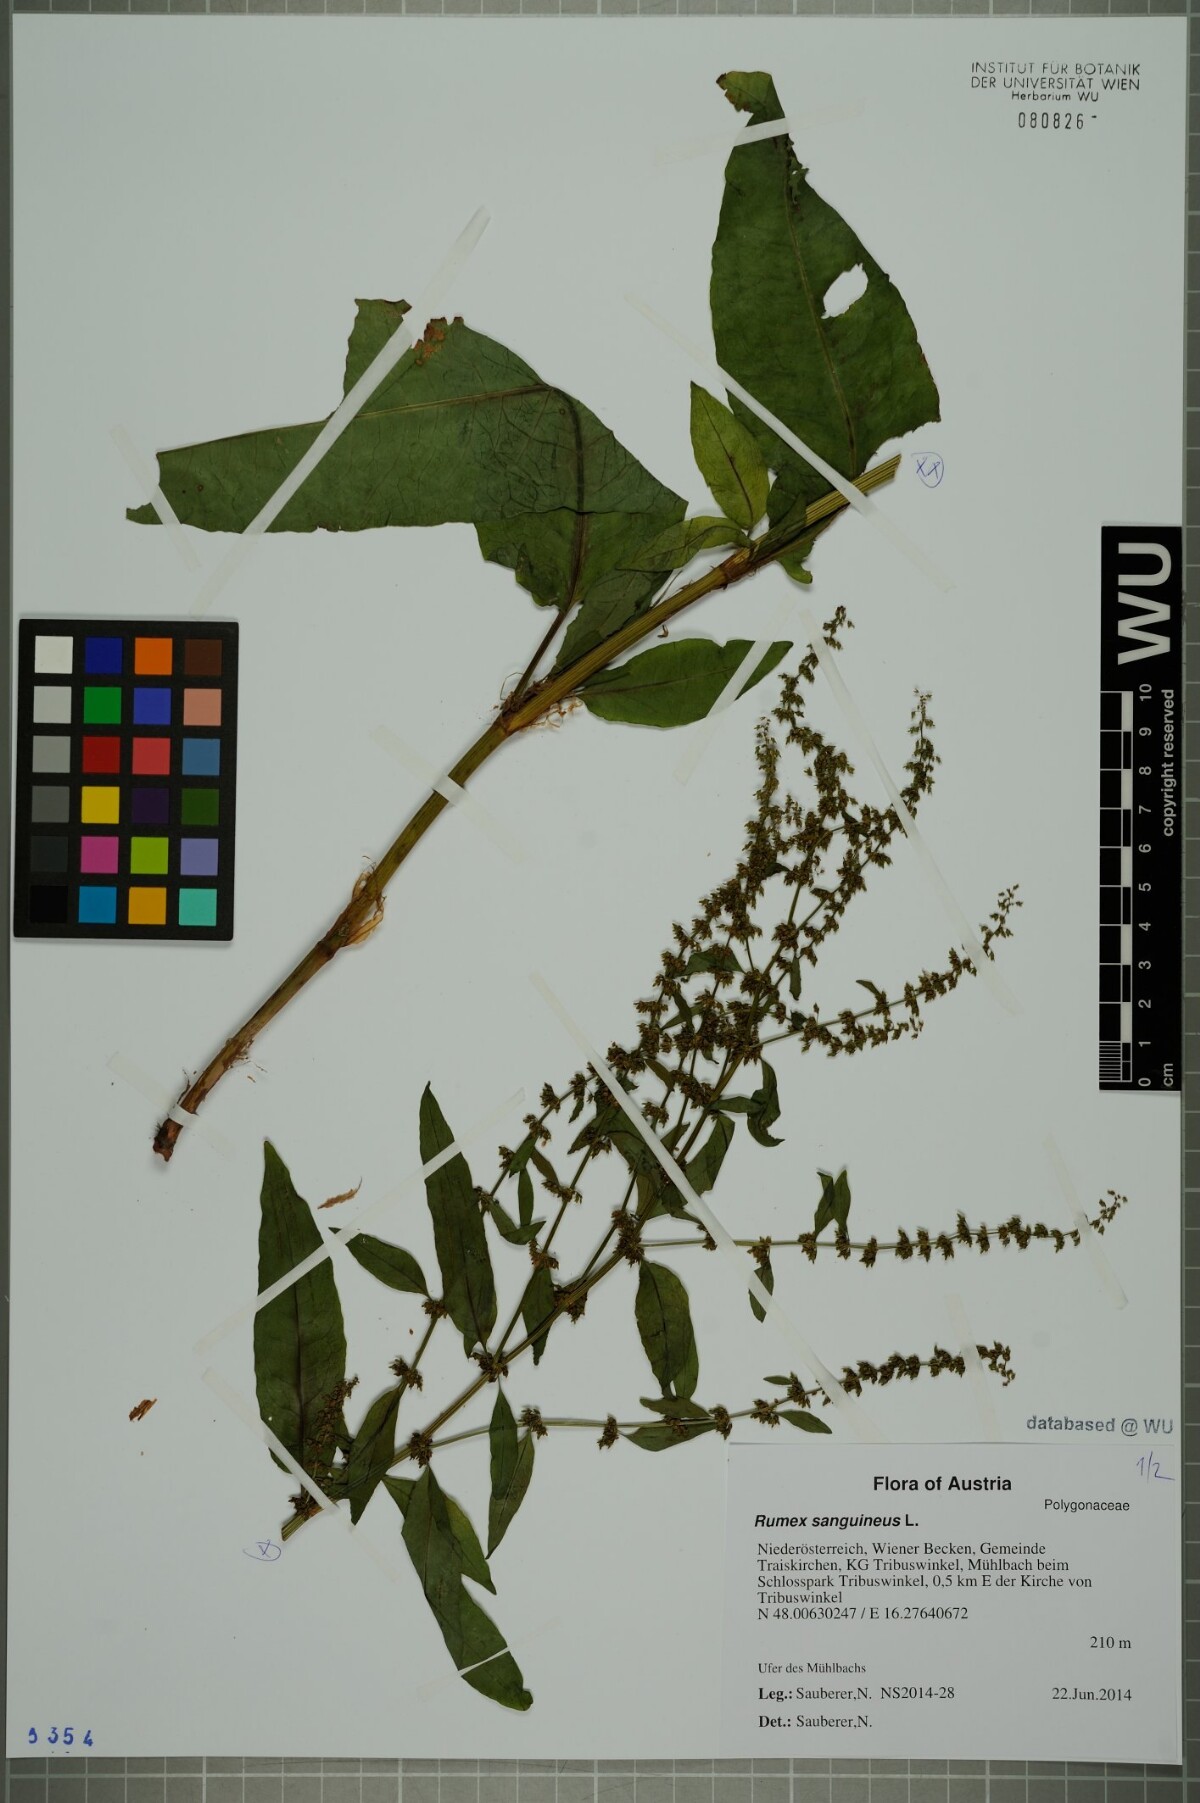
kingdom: Plantae
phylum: Tracheophyta
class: Magnoliopsida
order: Caryophyllales
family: Polygonaceae
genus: Rumex
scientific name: Rumex sanguineus
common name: Wood dock
